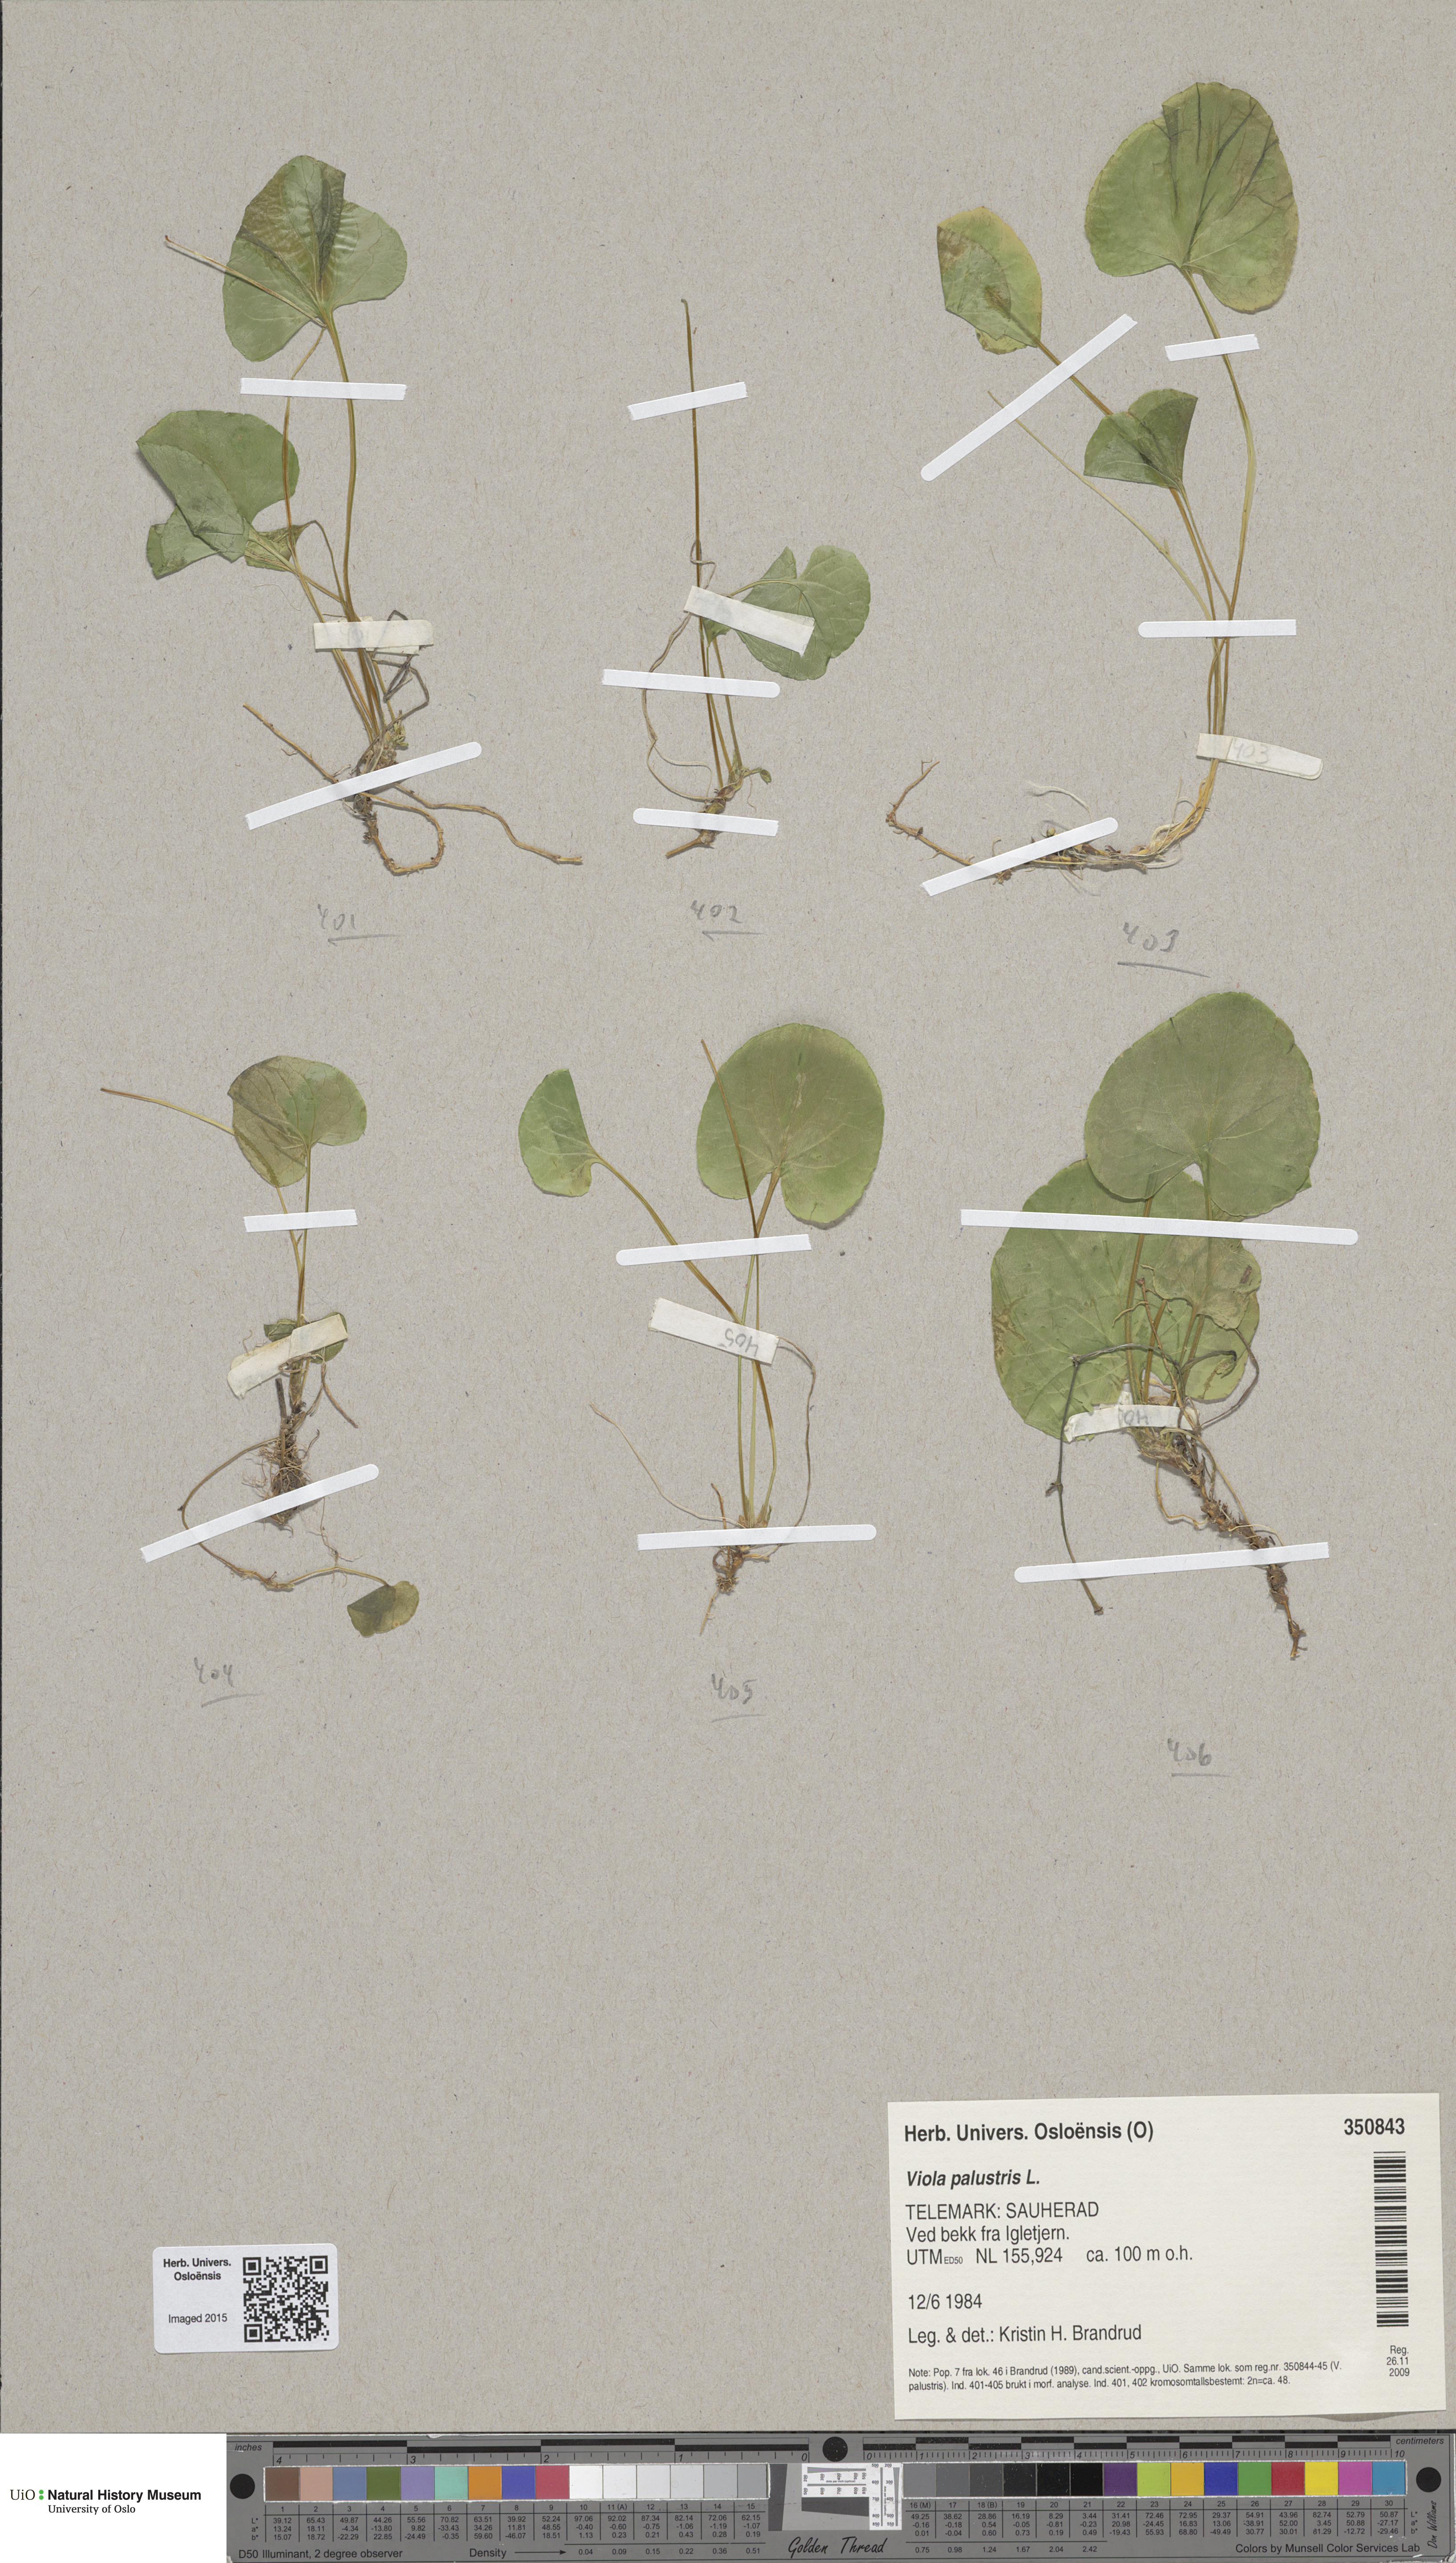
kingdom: Plantae
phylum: Tracheophyta
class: Magnoliopsida
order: Malpighiales
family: Violaceae
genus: Viola
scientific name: Viola palustris
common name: Marsh violet
